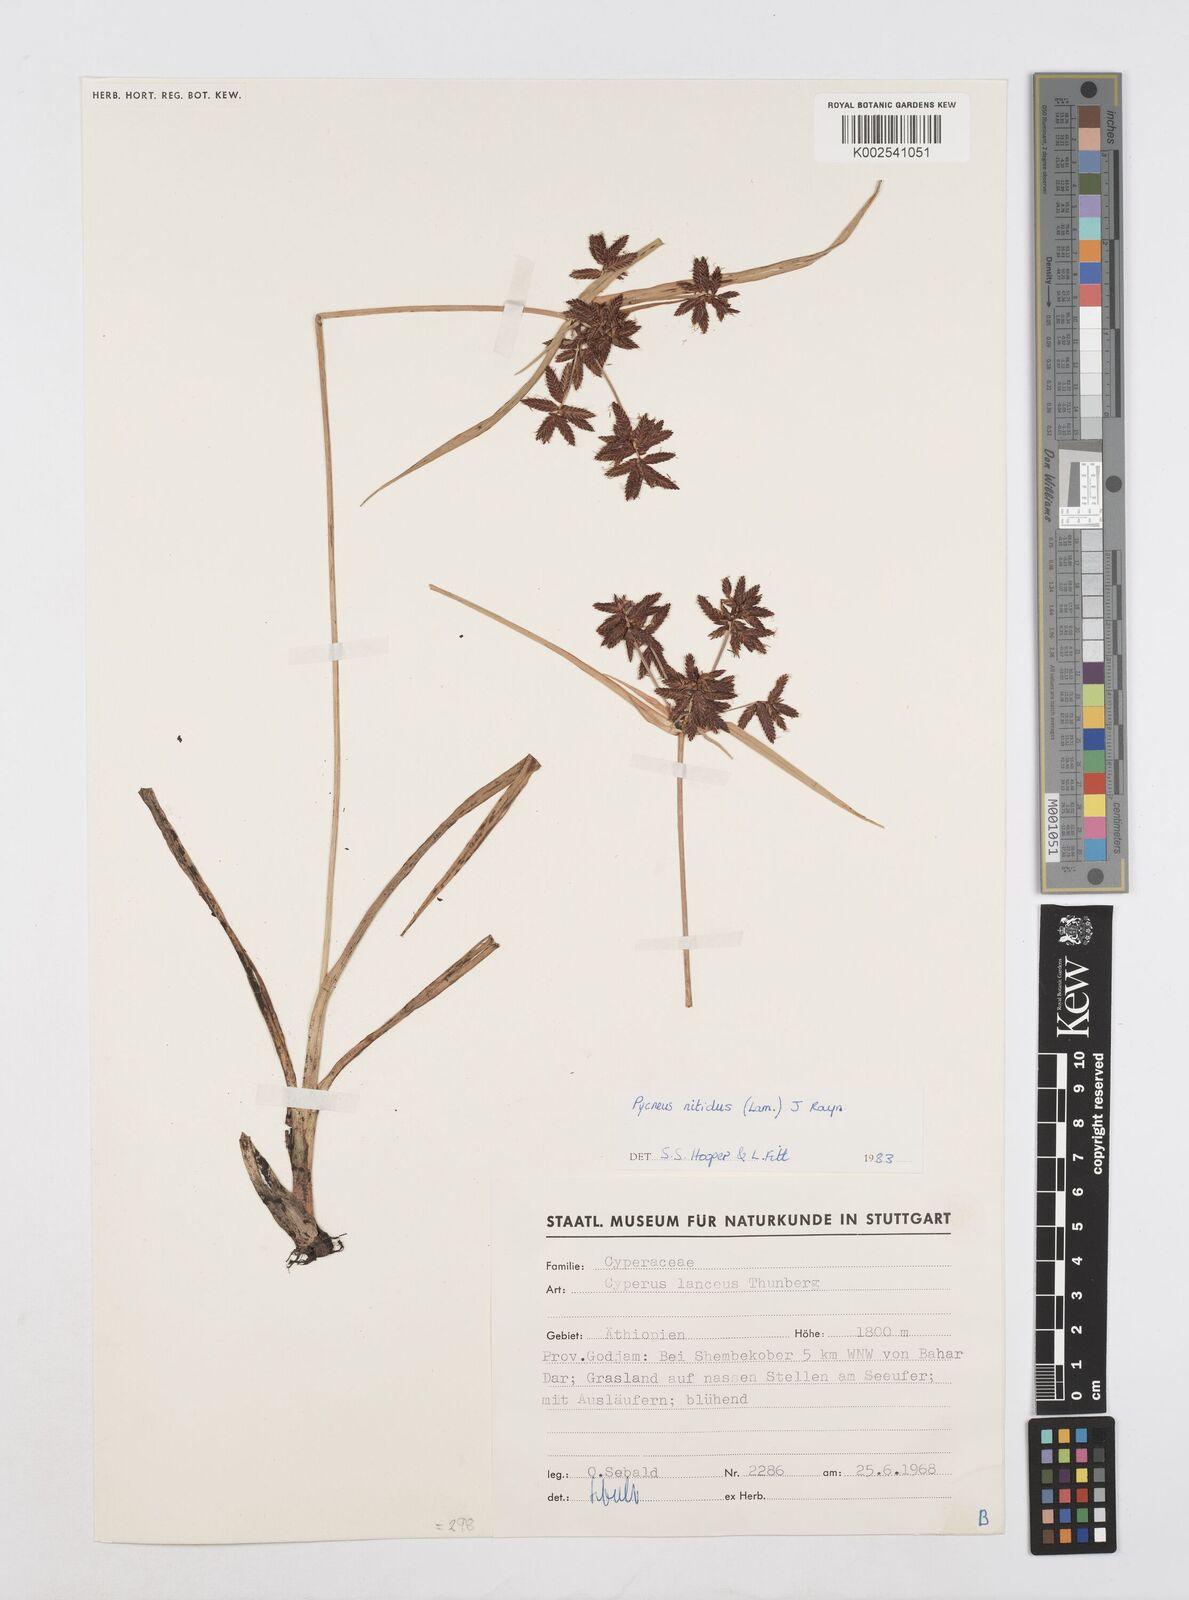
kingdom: Plantae
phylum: Tracheophyta
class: Liliopsida
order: Poales
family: Cyperaceae
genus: Cyperus
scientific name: Cyperus nitidus
